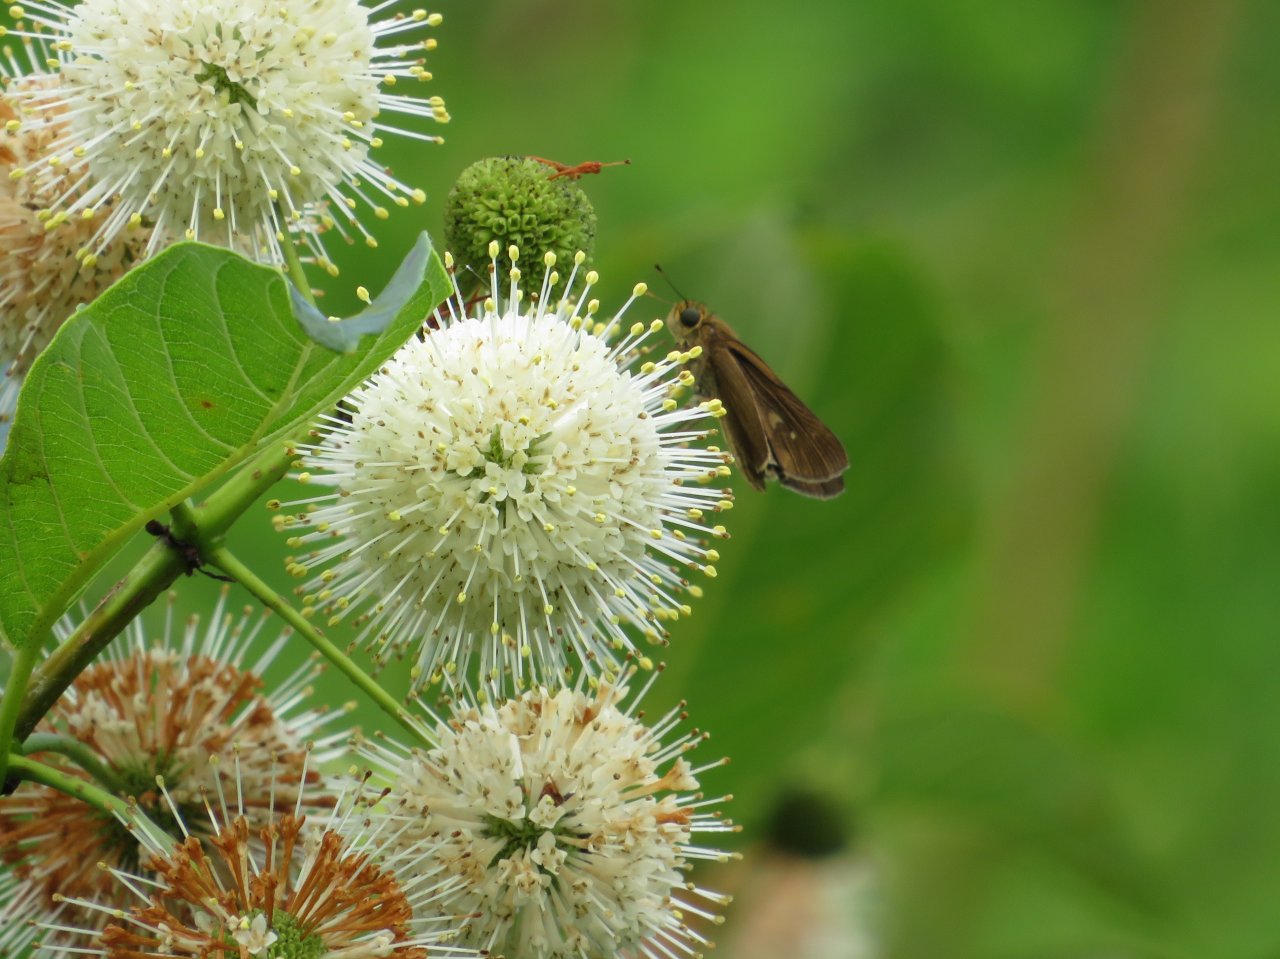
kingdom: Animalia
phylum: Arthropoda
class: Insecta
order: Lepidoptera
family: Hesperiidae
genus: Panoquina
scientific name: Panoquina ocola
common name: Ocola Skipper
